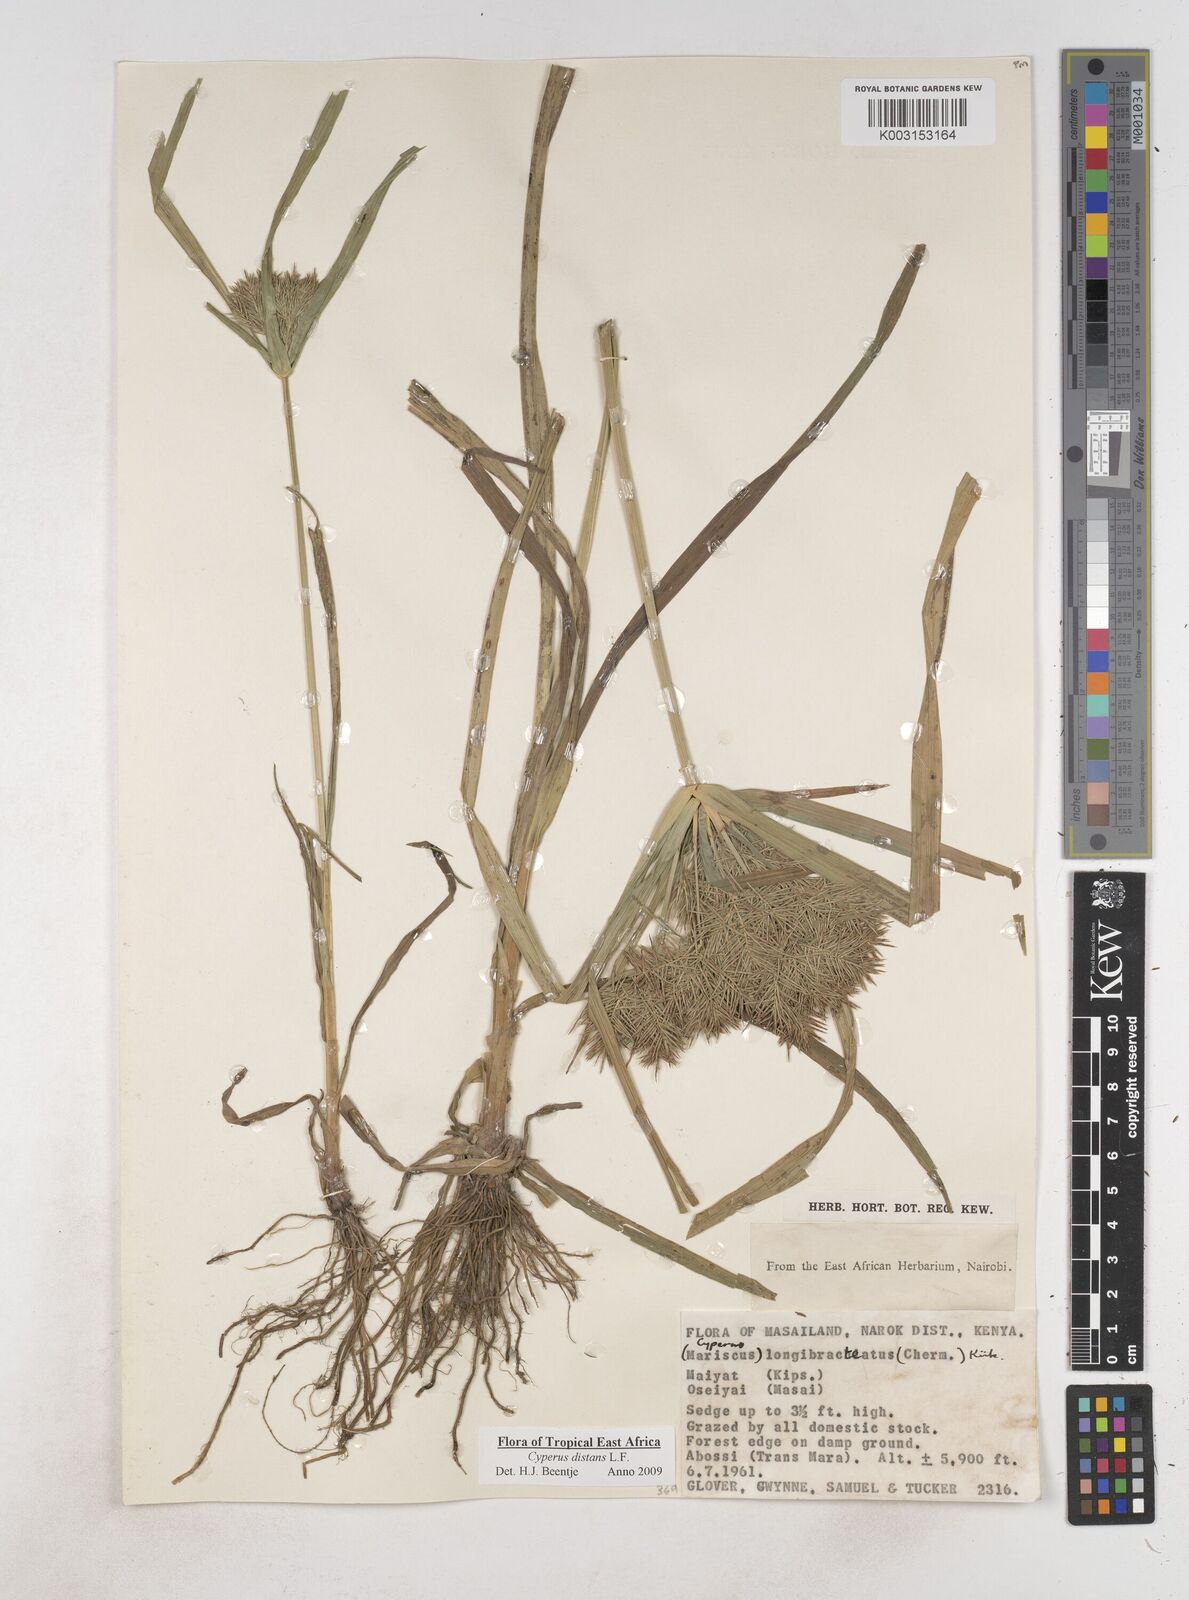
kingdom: Plantae
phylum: Tracheophyta
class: Liliopsida
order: Poales
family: Cyperaceae
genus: Cyperus
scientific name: Cyperus distans
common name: Slender cyperus
